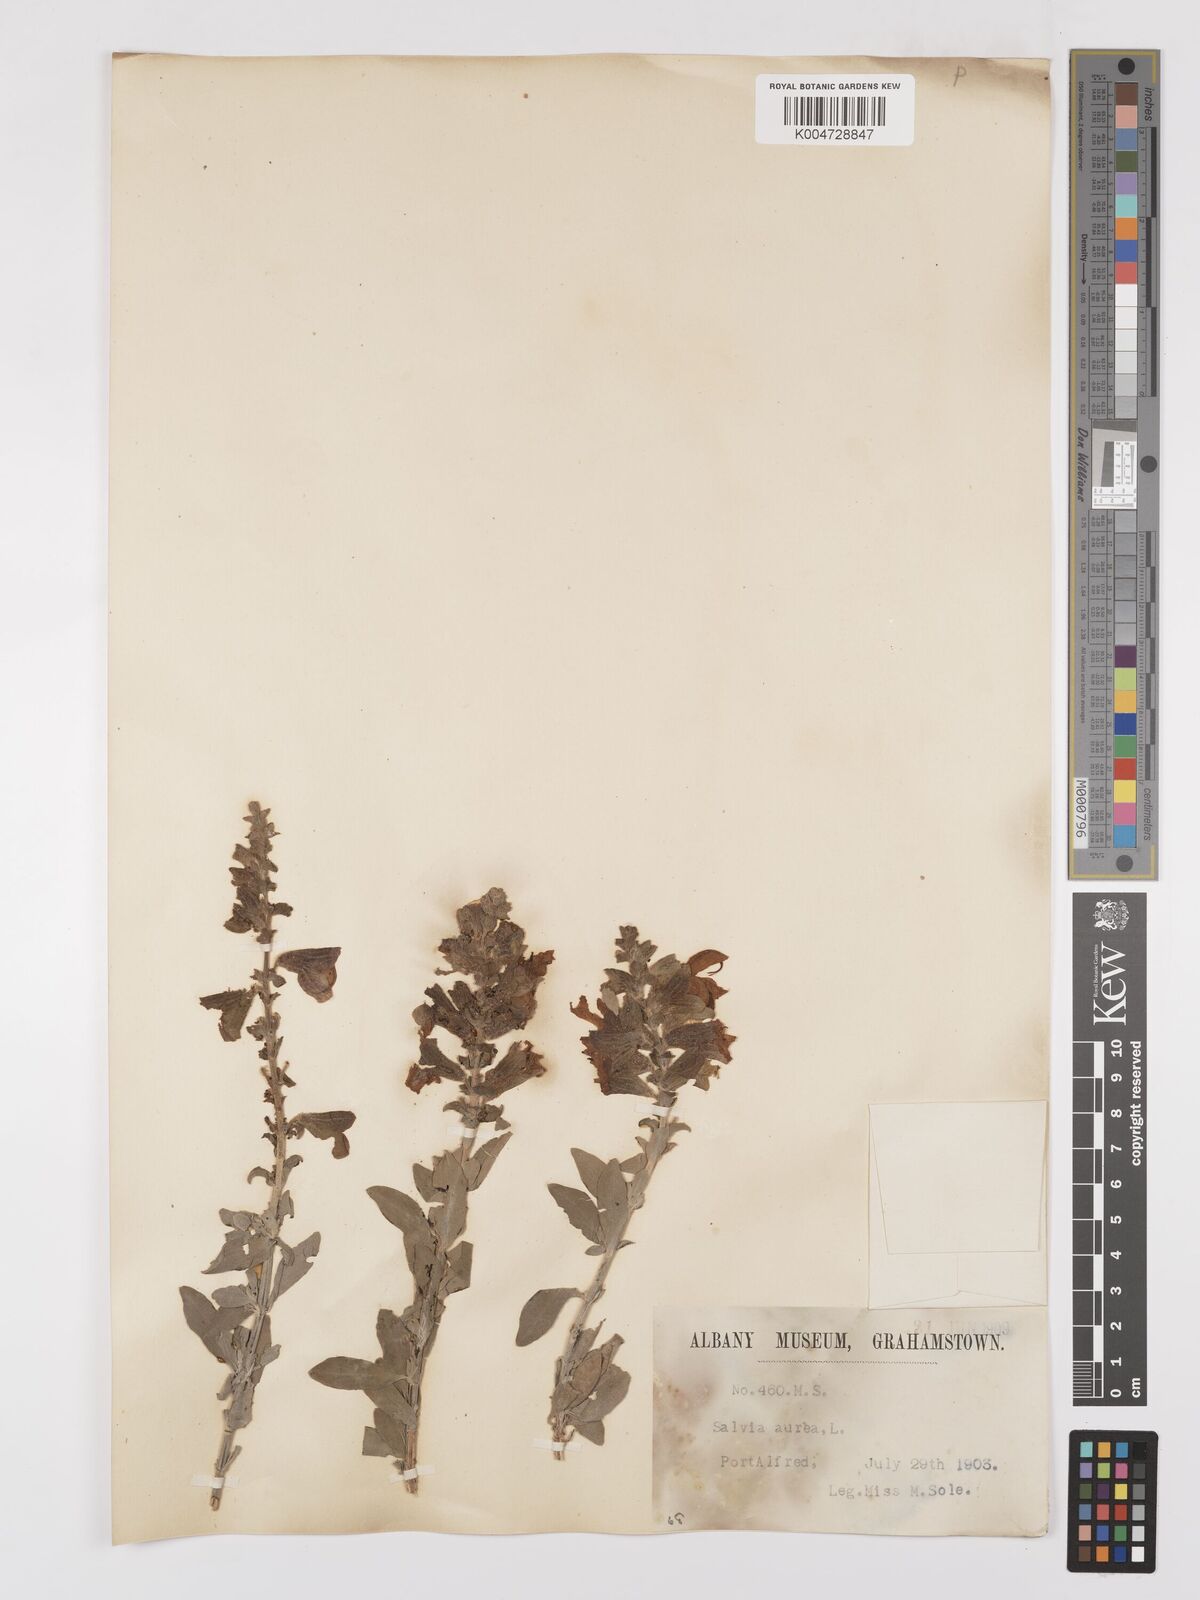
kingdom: Plantae
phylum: Tracheophyta
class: Magnoliopsida
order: Lamiales
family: Lamiaceae
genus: Salvia
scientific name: Salvia aurea
